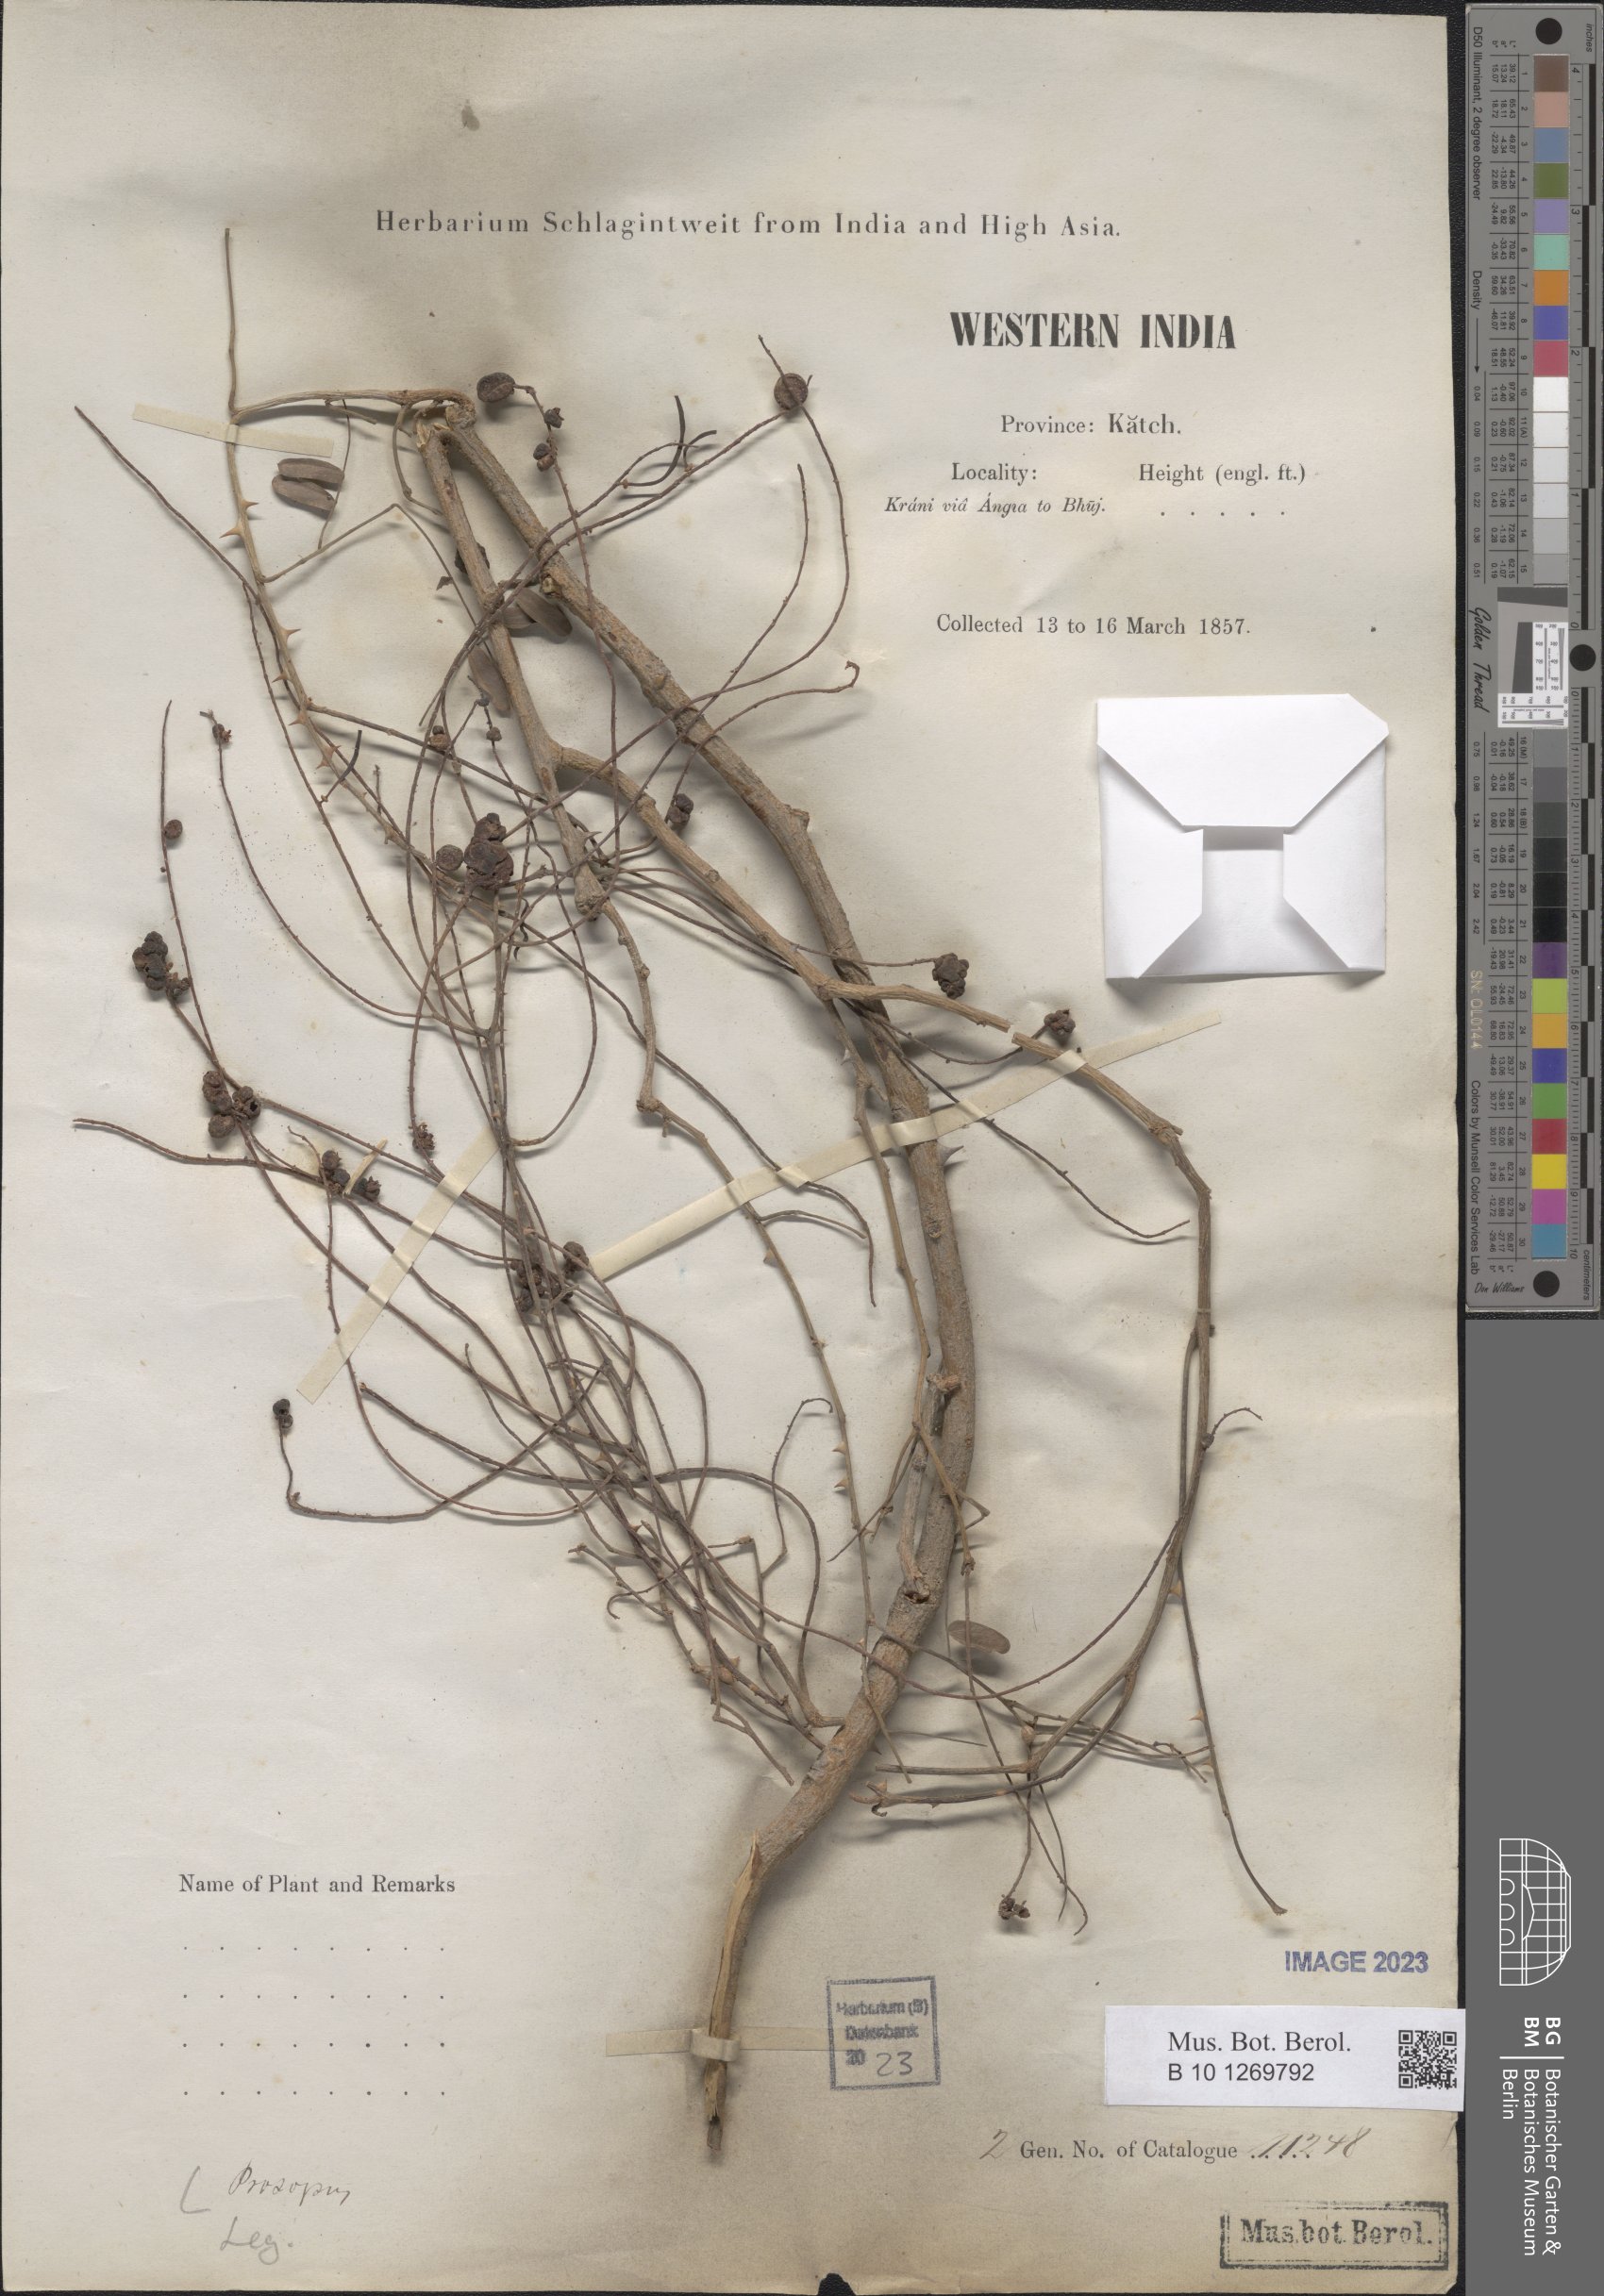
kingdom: Plantae
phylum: Tracheophyta
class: Magnoliopsida
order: Fabales
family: Fabaceae
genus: Prosopis
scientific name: Prosopis
